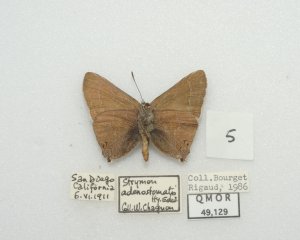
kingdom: Animalia
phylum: Arthropoda
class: Insecta
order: Lepidoptera
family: Lycaenidae
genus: Thecla
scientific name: Thecla tetra
